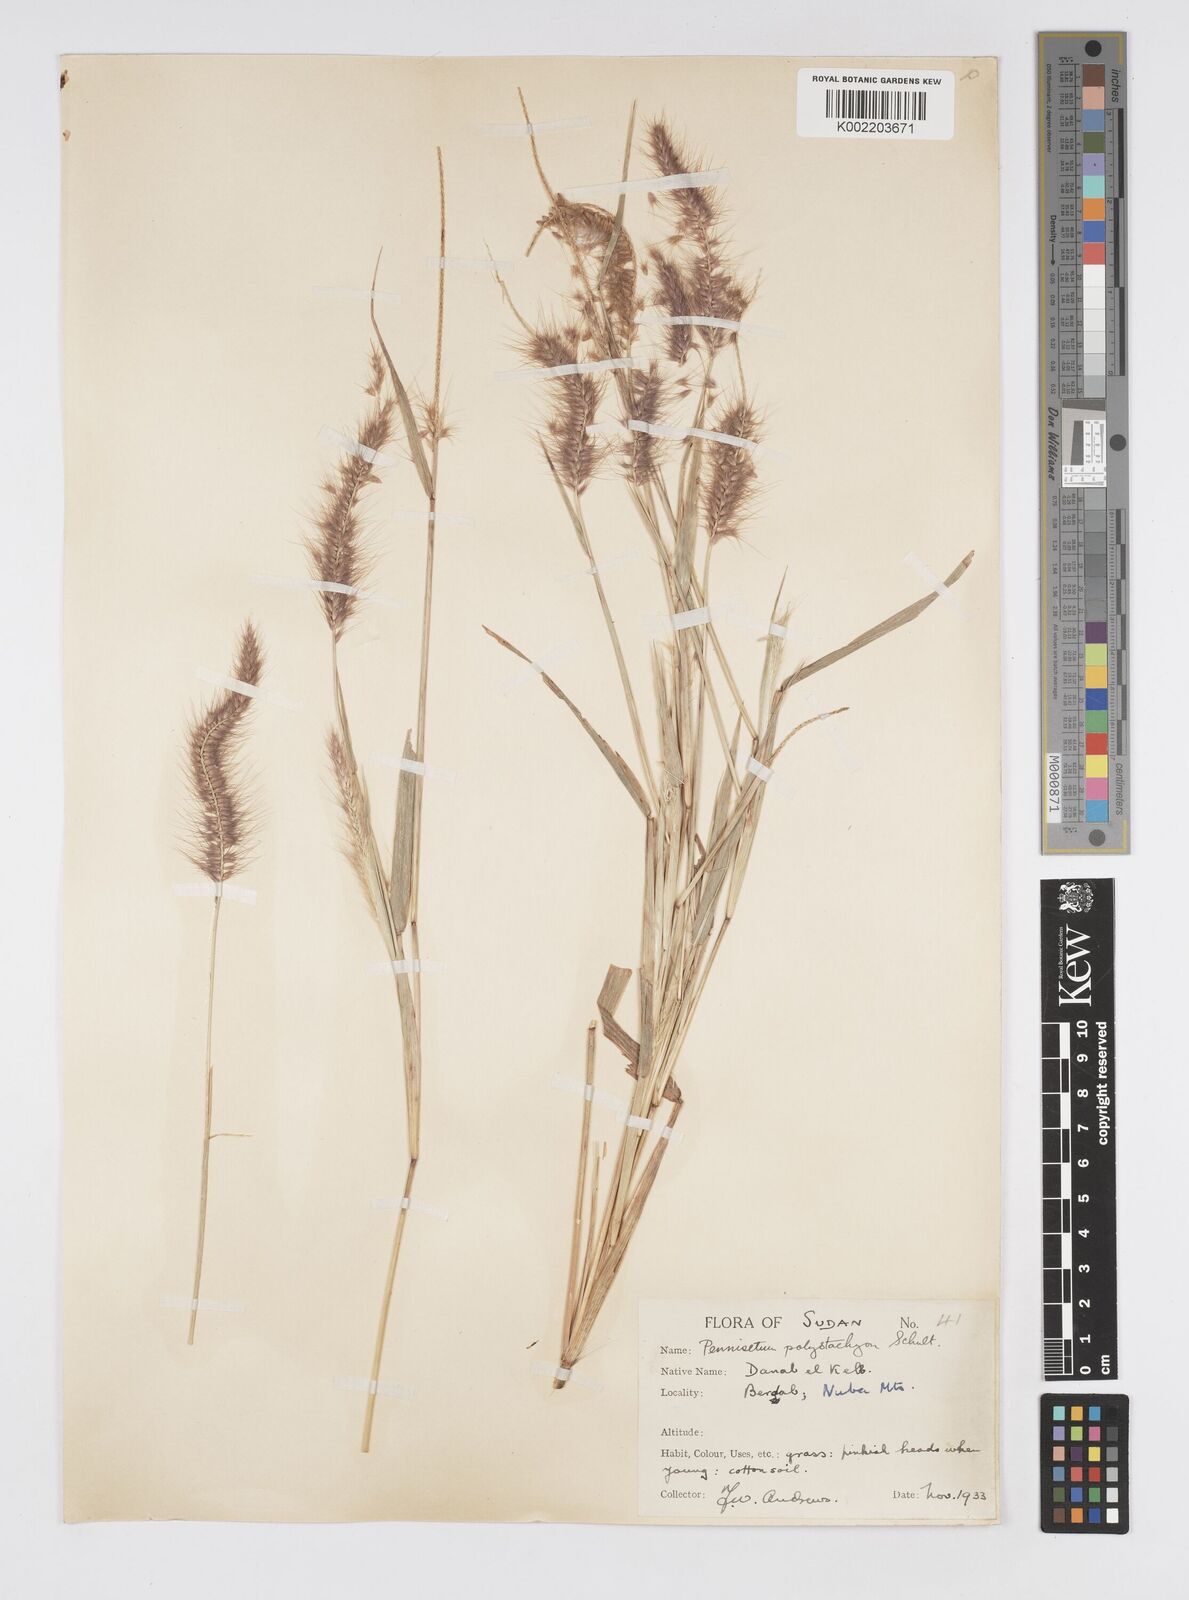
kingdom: Plantae
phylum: Tracheophyta
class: Liliopsida
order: Poales
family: Poaceae
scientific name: Poaceae
